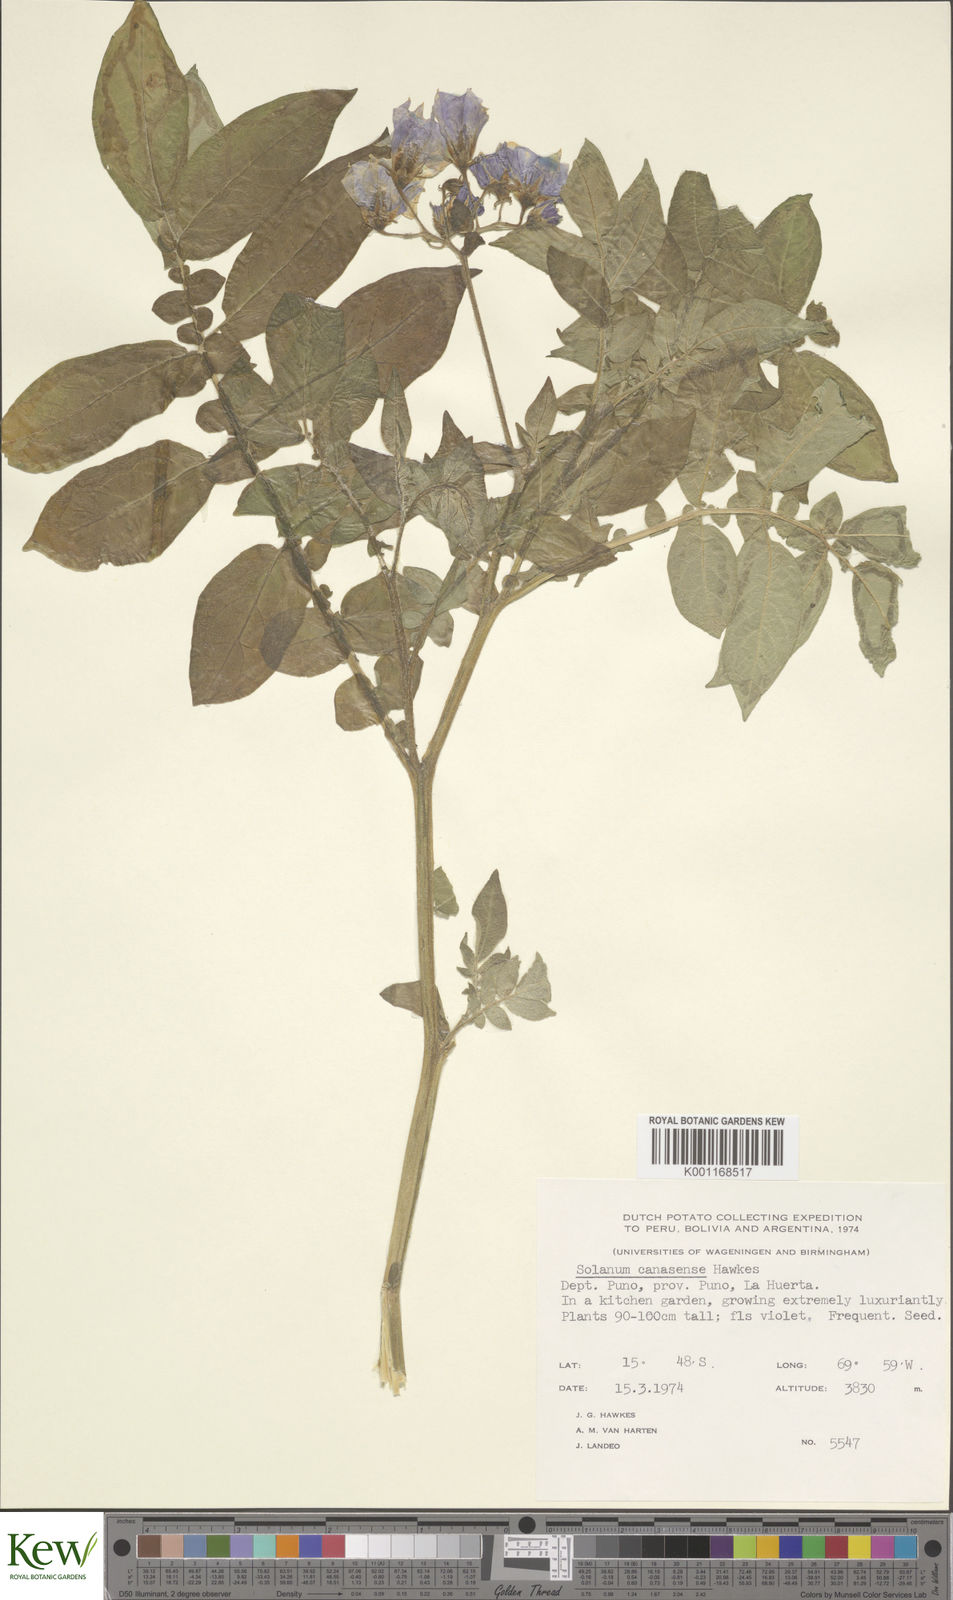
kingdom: Plantae
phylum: Tracheophyta
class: Magnoliopsida
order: Solanales
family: Solanaceae
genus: Solanum
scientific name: Solanum candolleanum
